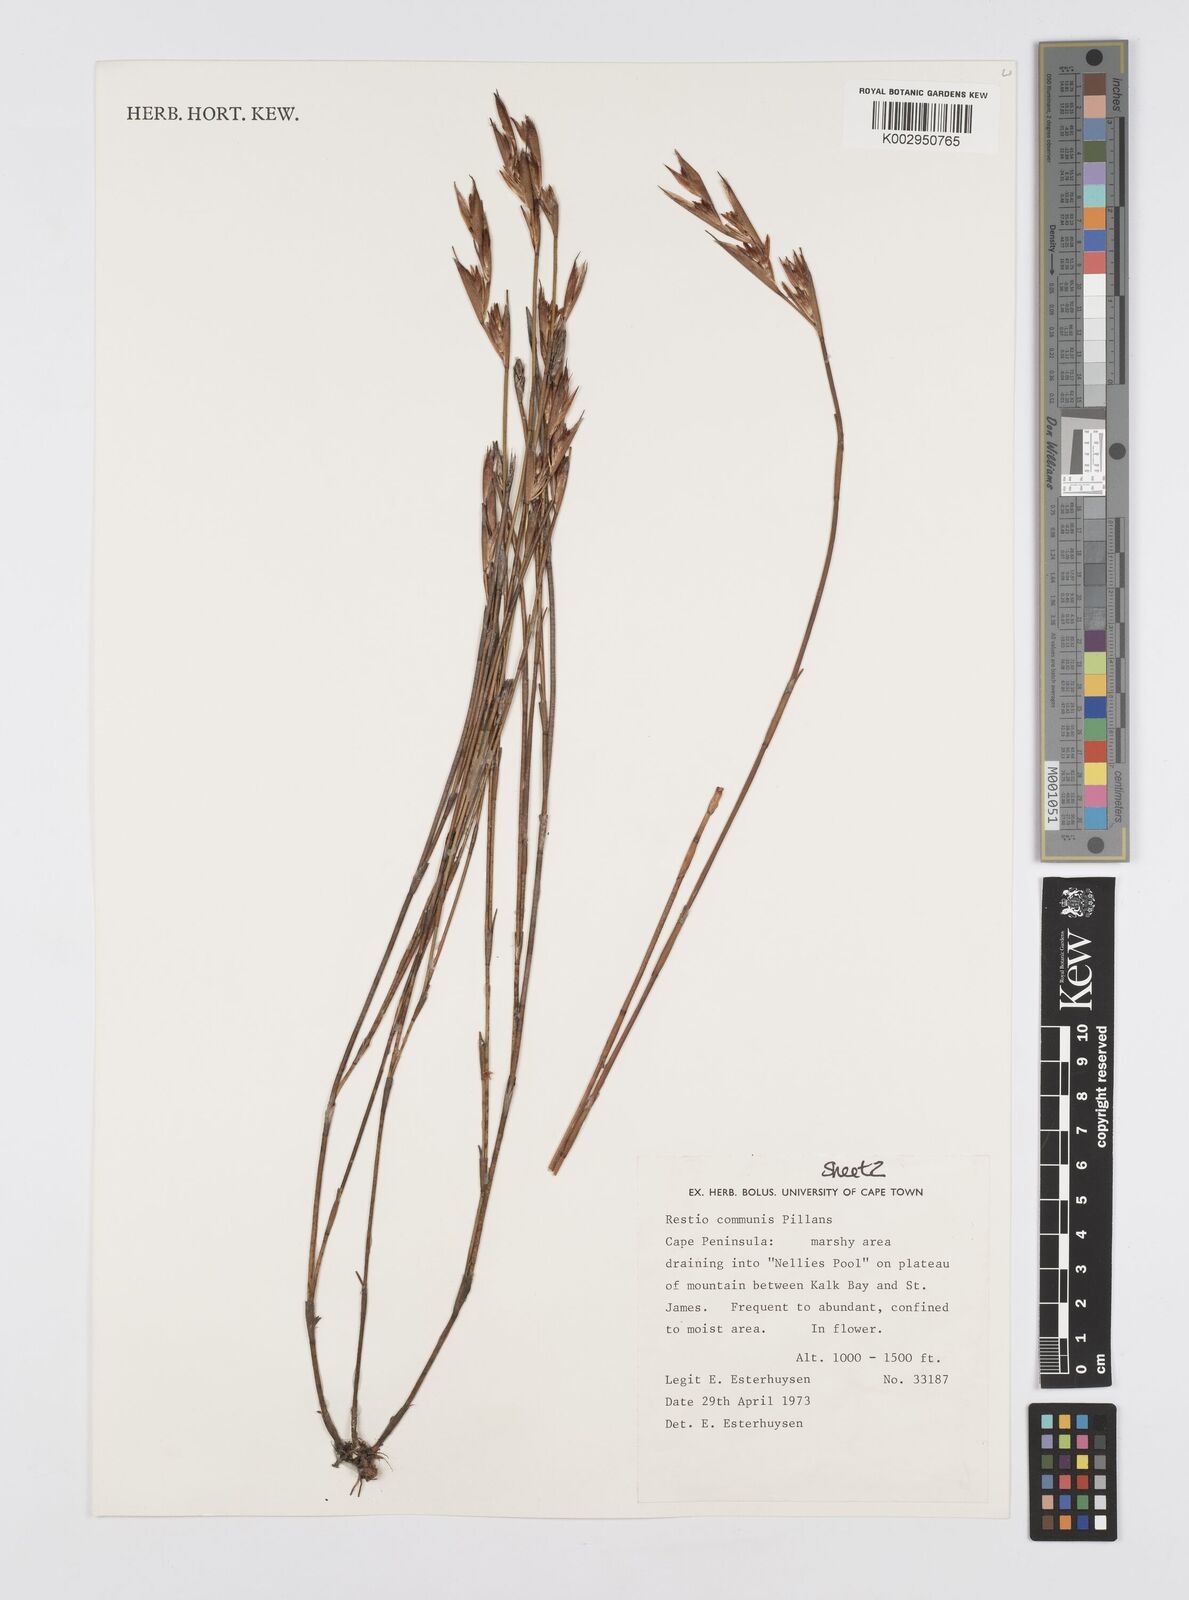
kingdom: Plantae
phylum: Tracheophyta
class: Liliopsida
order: Poales
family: Restionaceae
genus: Restio
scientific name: Restio communis
